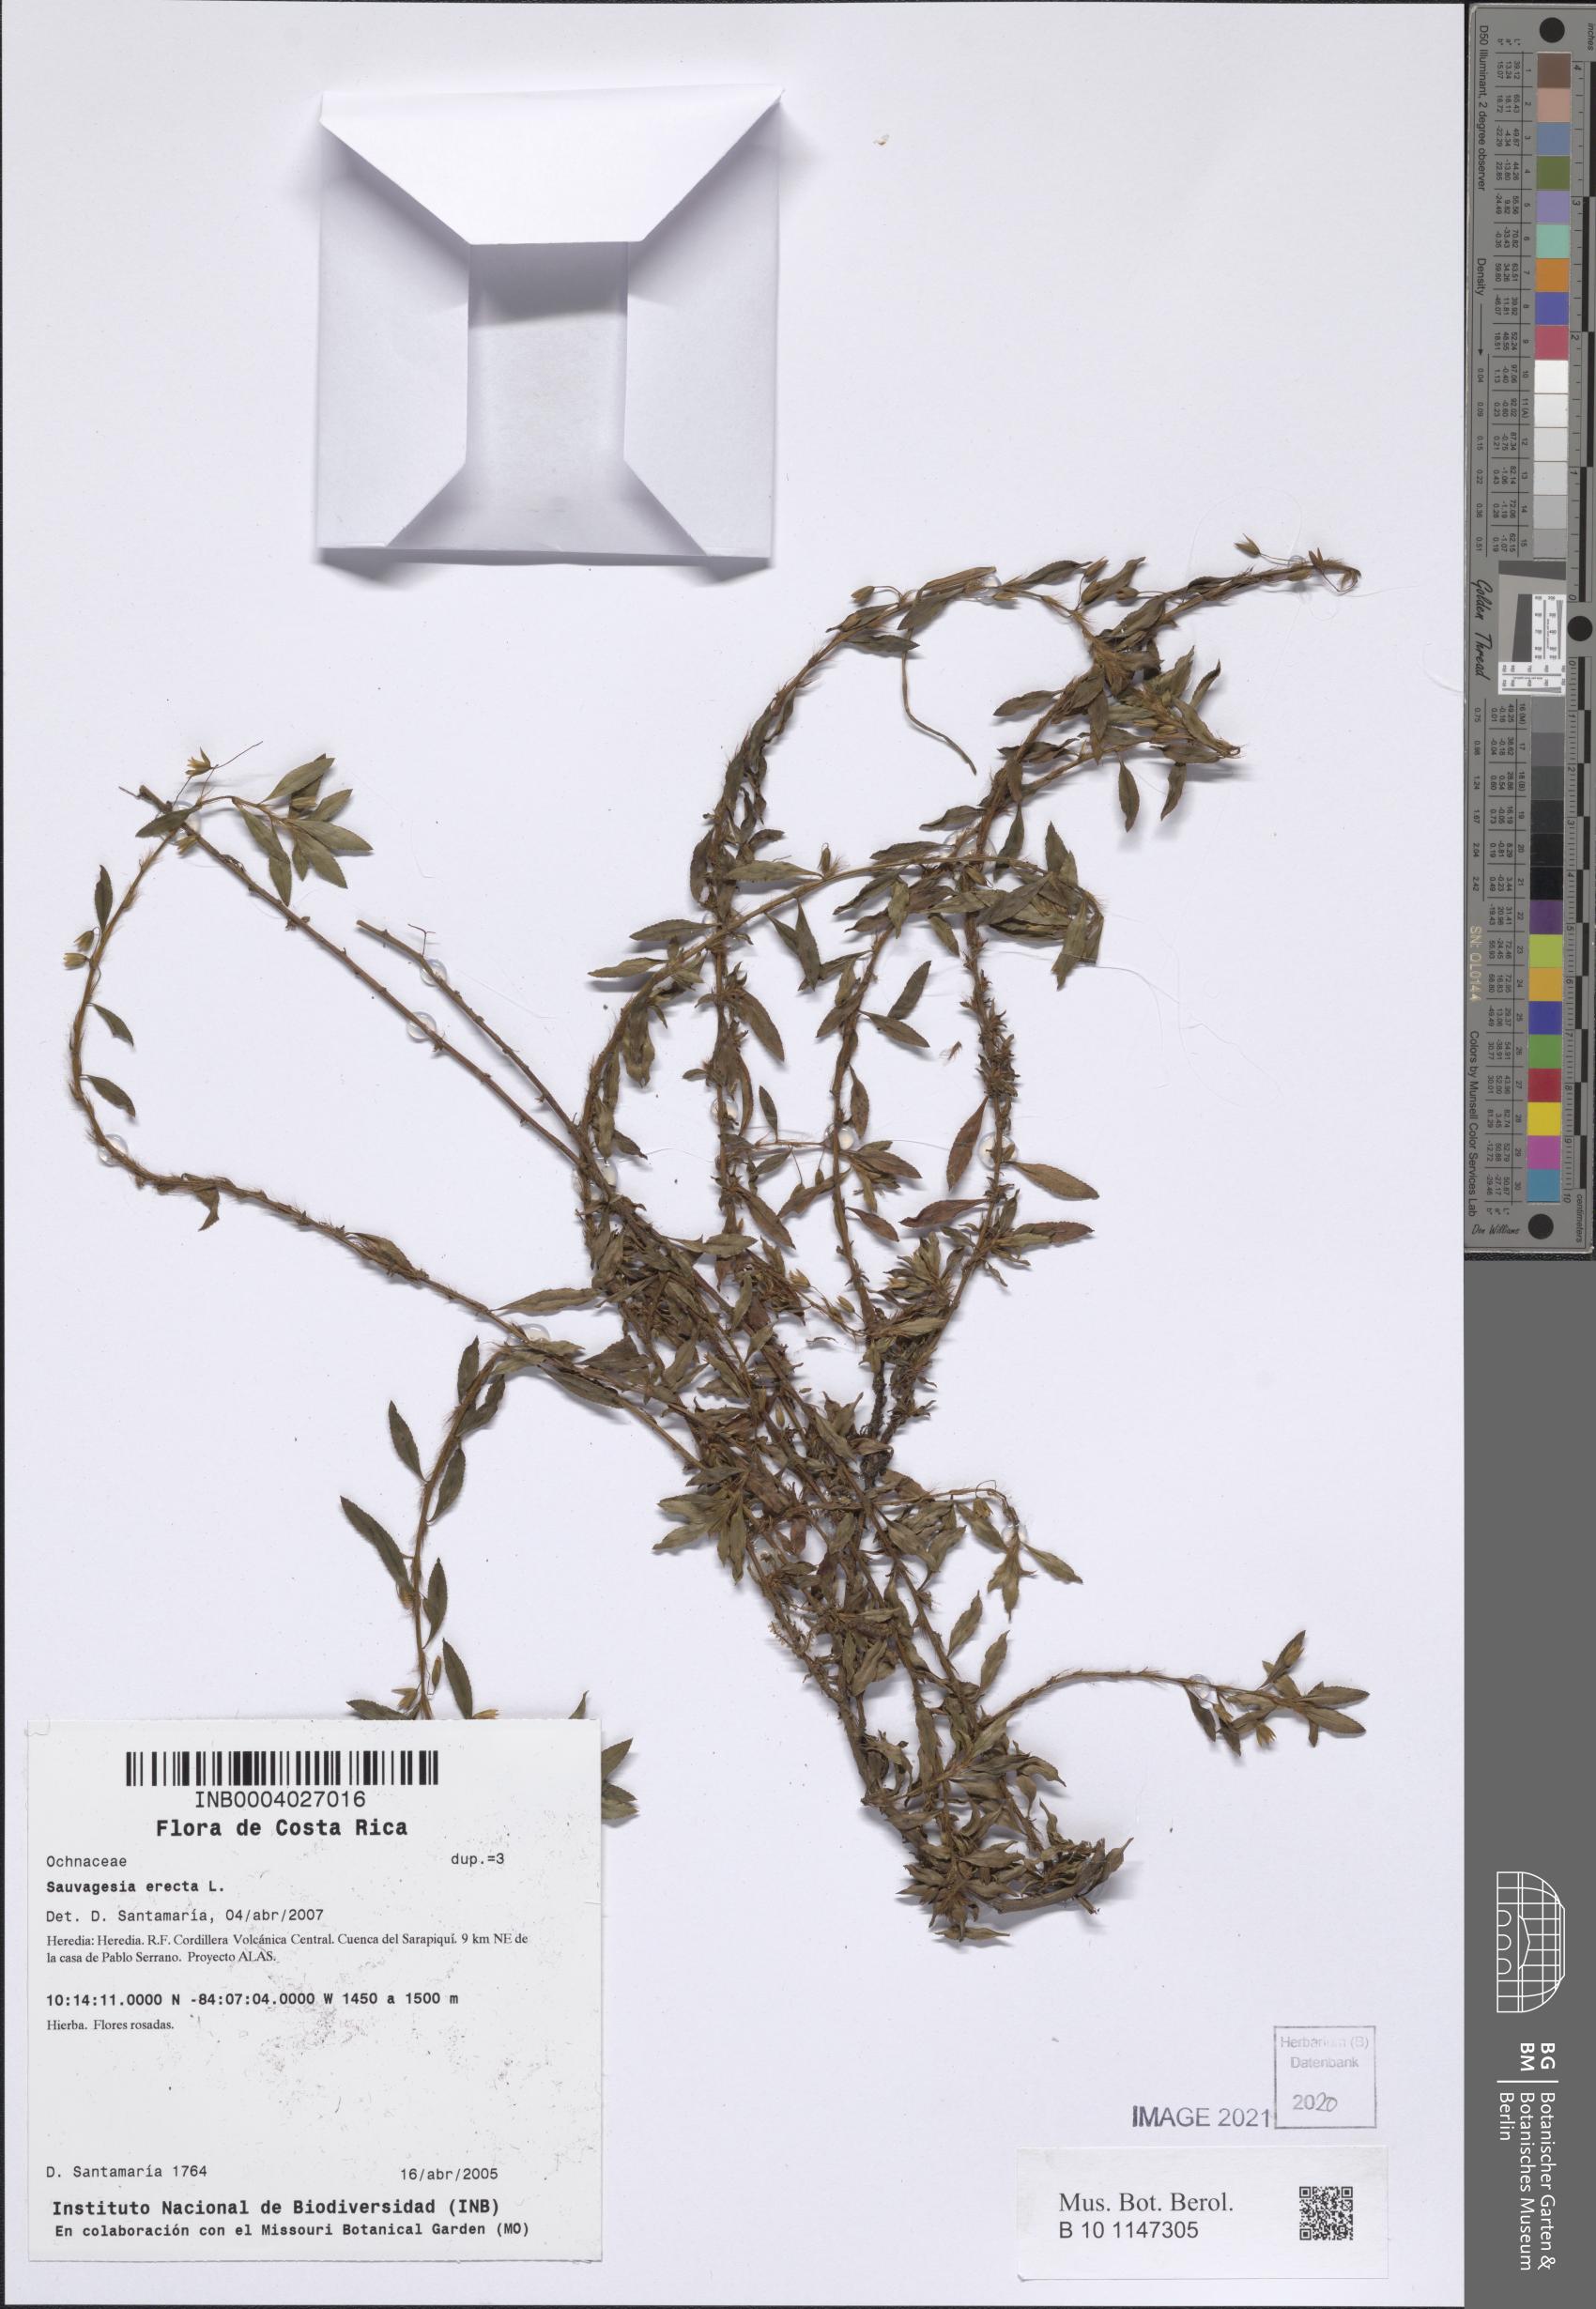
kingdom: Plantae
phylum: Tracheophyta
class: Magnoliopsida
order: Malpighiales
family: Ochnaceae
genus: Sauvagesia
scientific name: Sauvagesia erecta
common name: Creole tea
